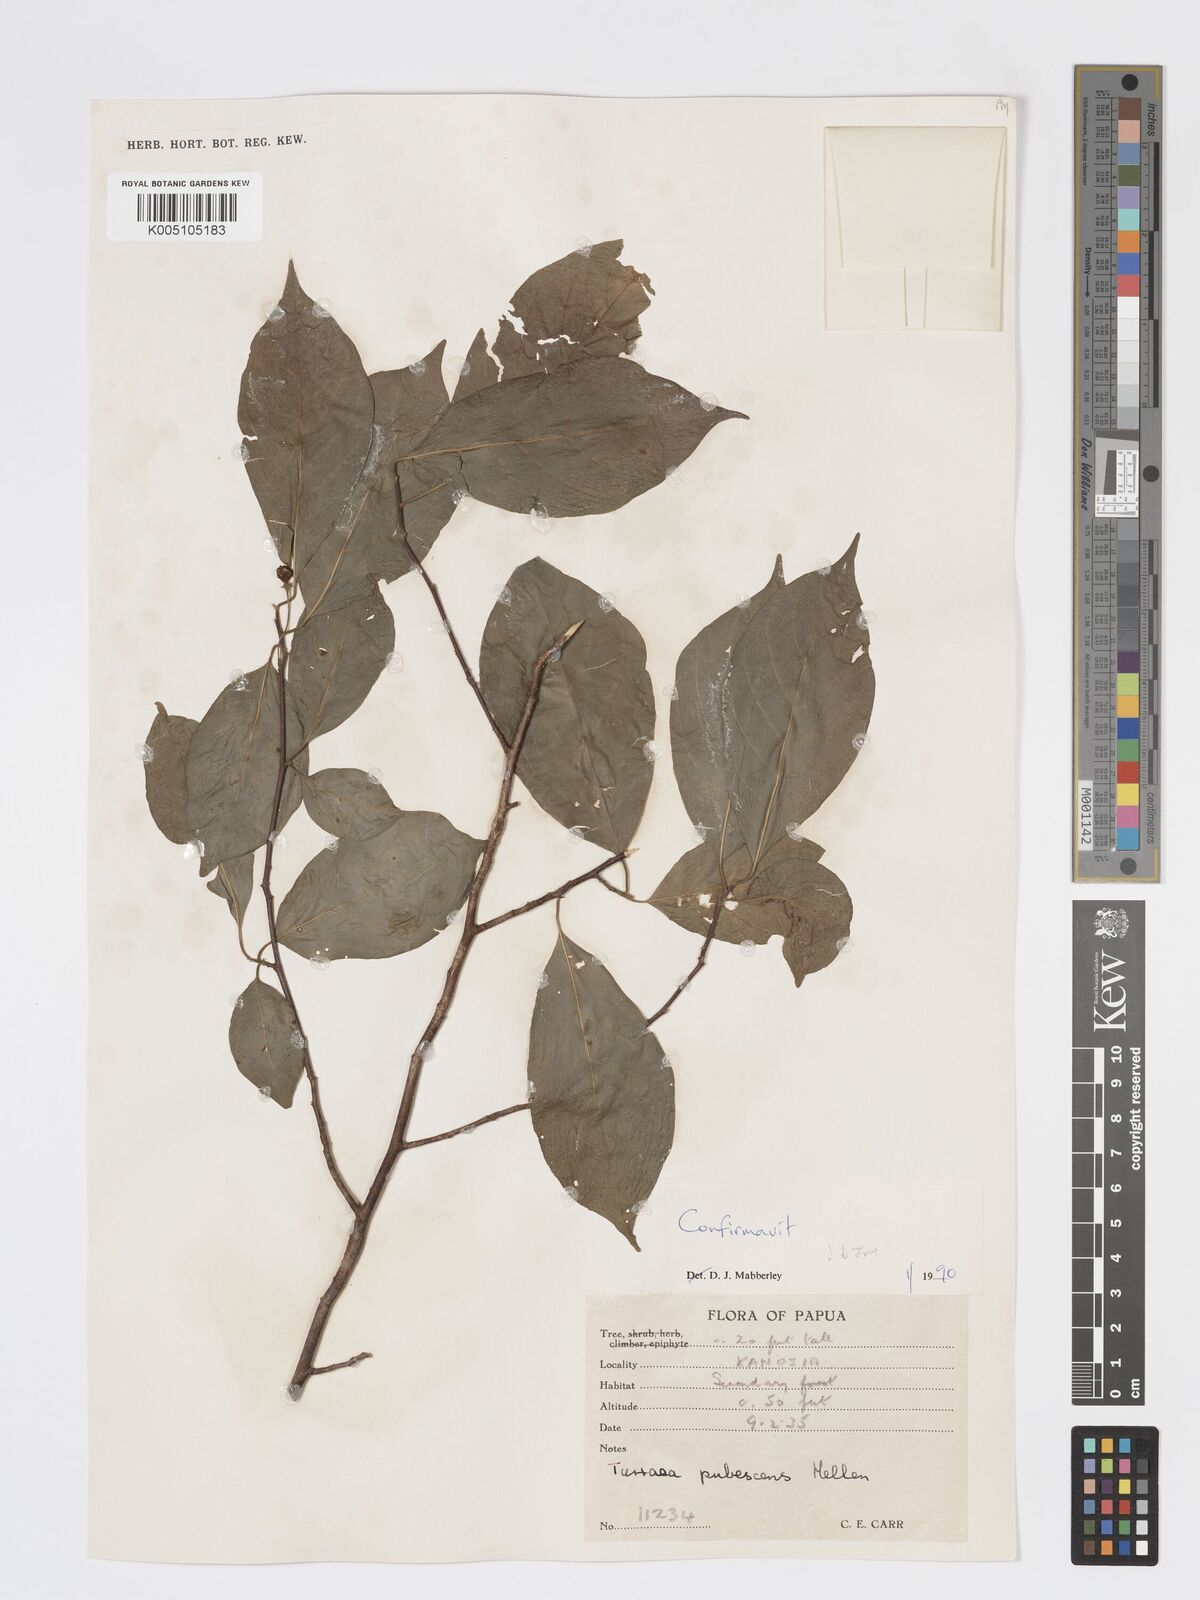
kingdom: Plantae
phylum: Tracheophyta
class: Magnoliopsida
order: Sapindales
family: Meliaceae
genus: Turraea
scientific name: Turraea
